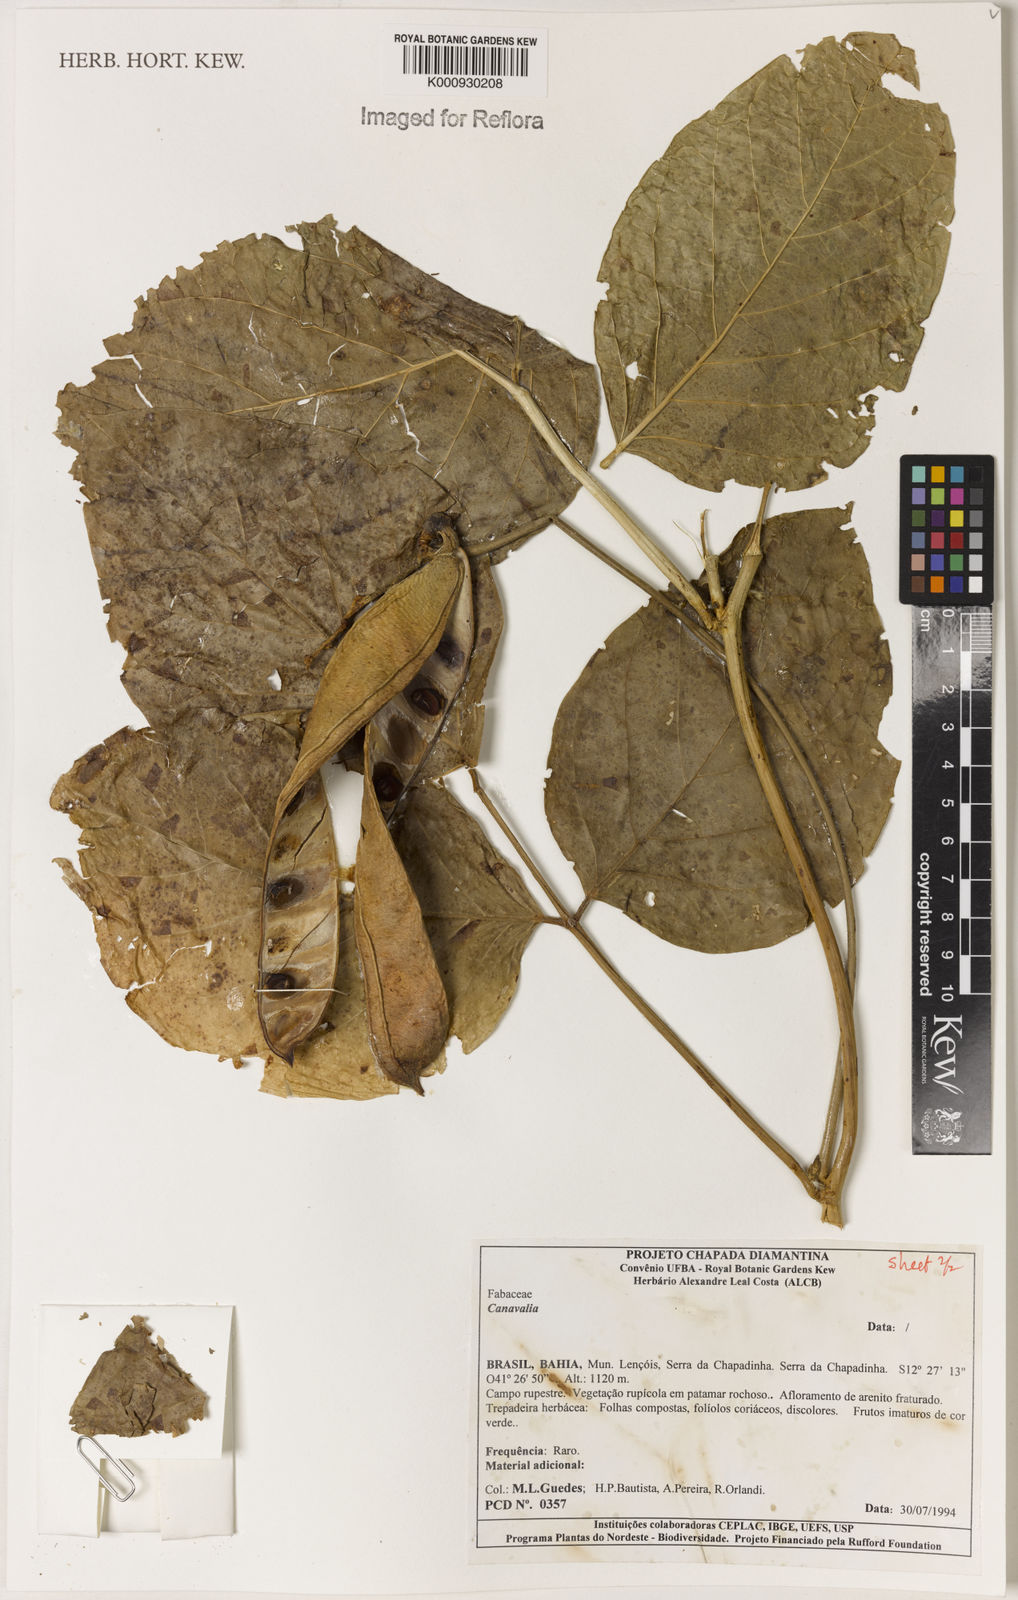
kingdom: Plantae
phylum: Tracheophyta
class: Magnoliopsida
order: Fabales
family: Fabaceae
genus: Canavalia
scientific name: Canavalia
